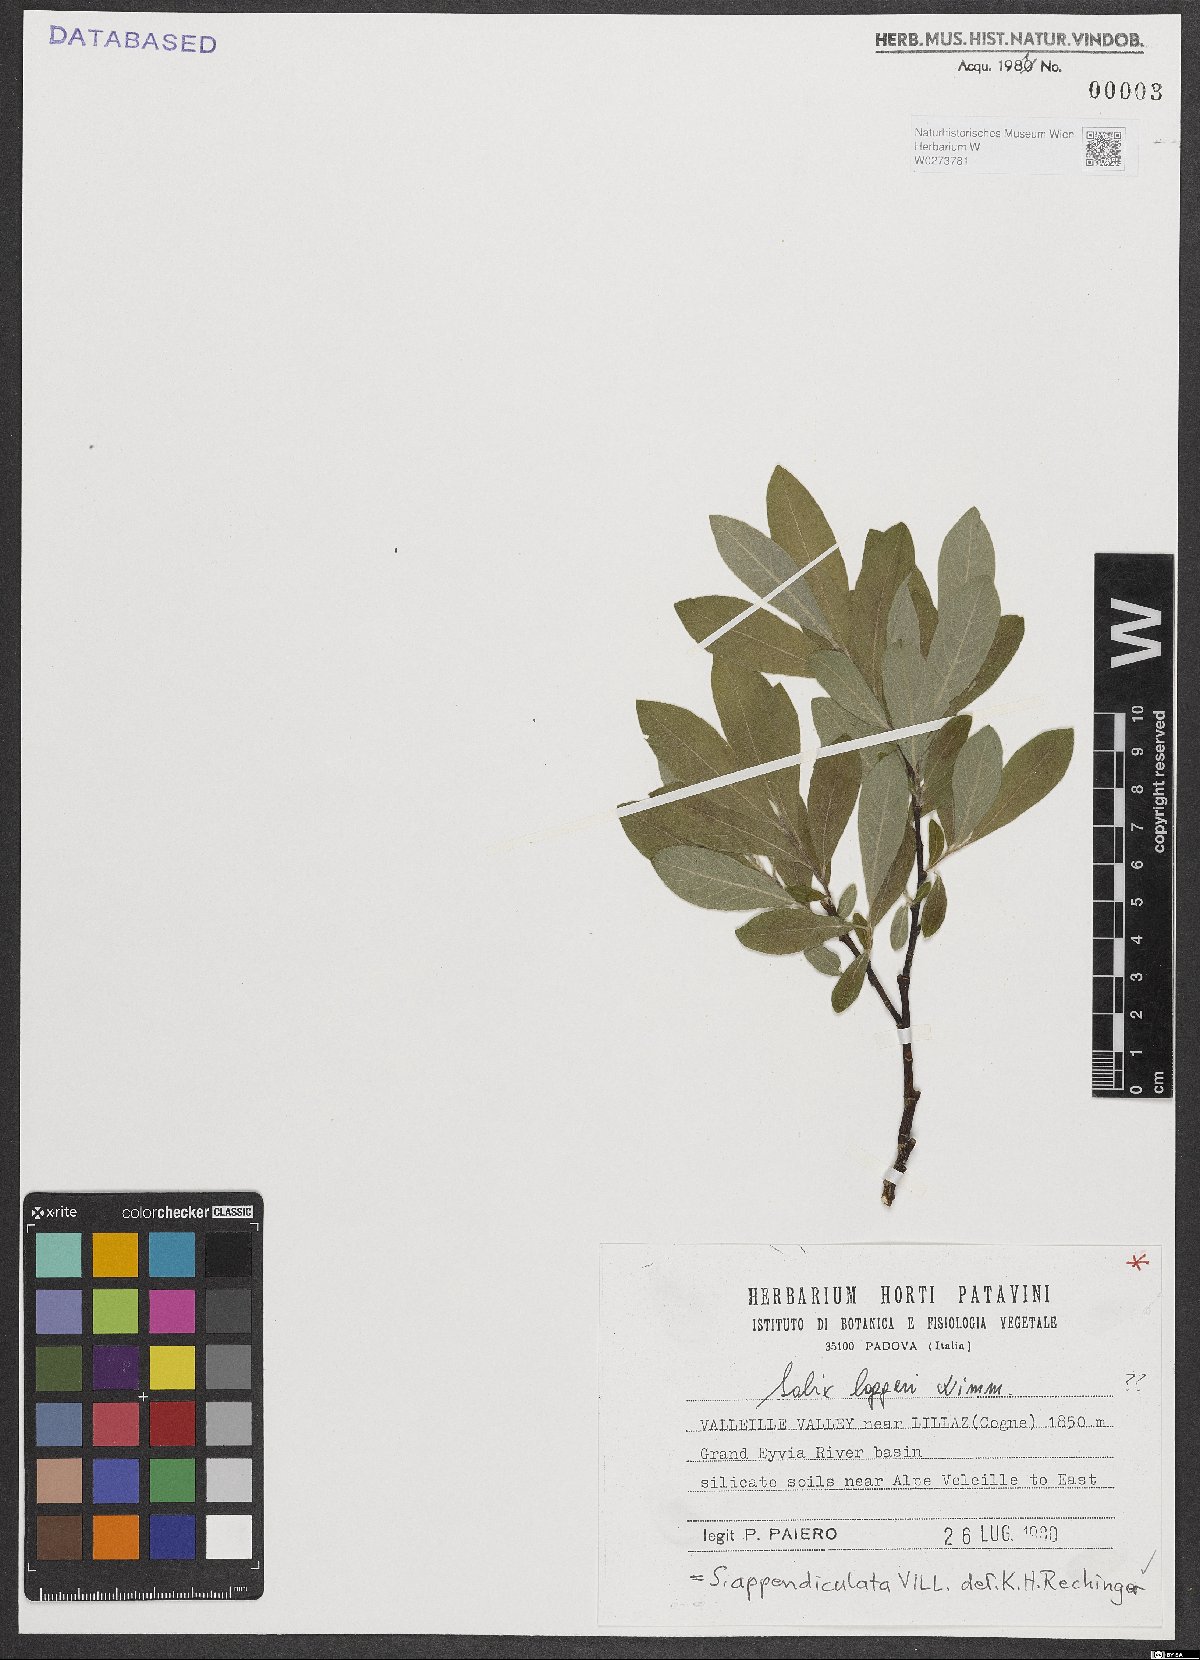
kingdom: Plantae
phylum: Tracheophyta
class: Magnoliopsida
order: Malpighiales
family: Salicaceae
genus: Salix
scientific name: Salix appendiculata
